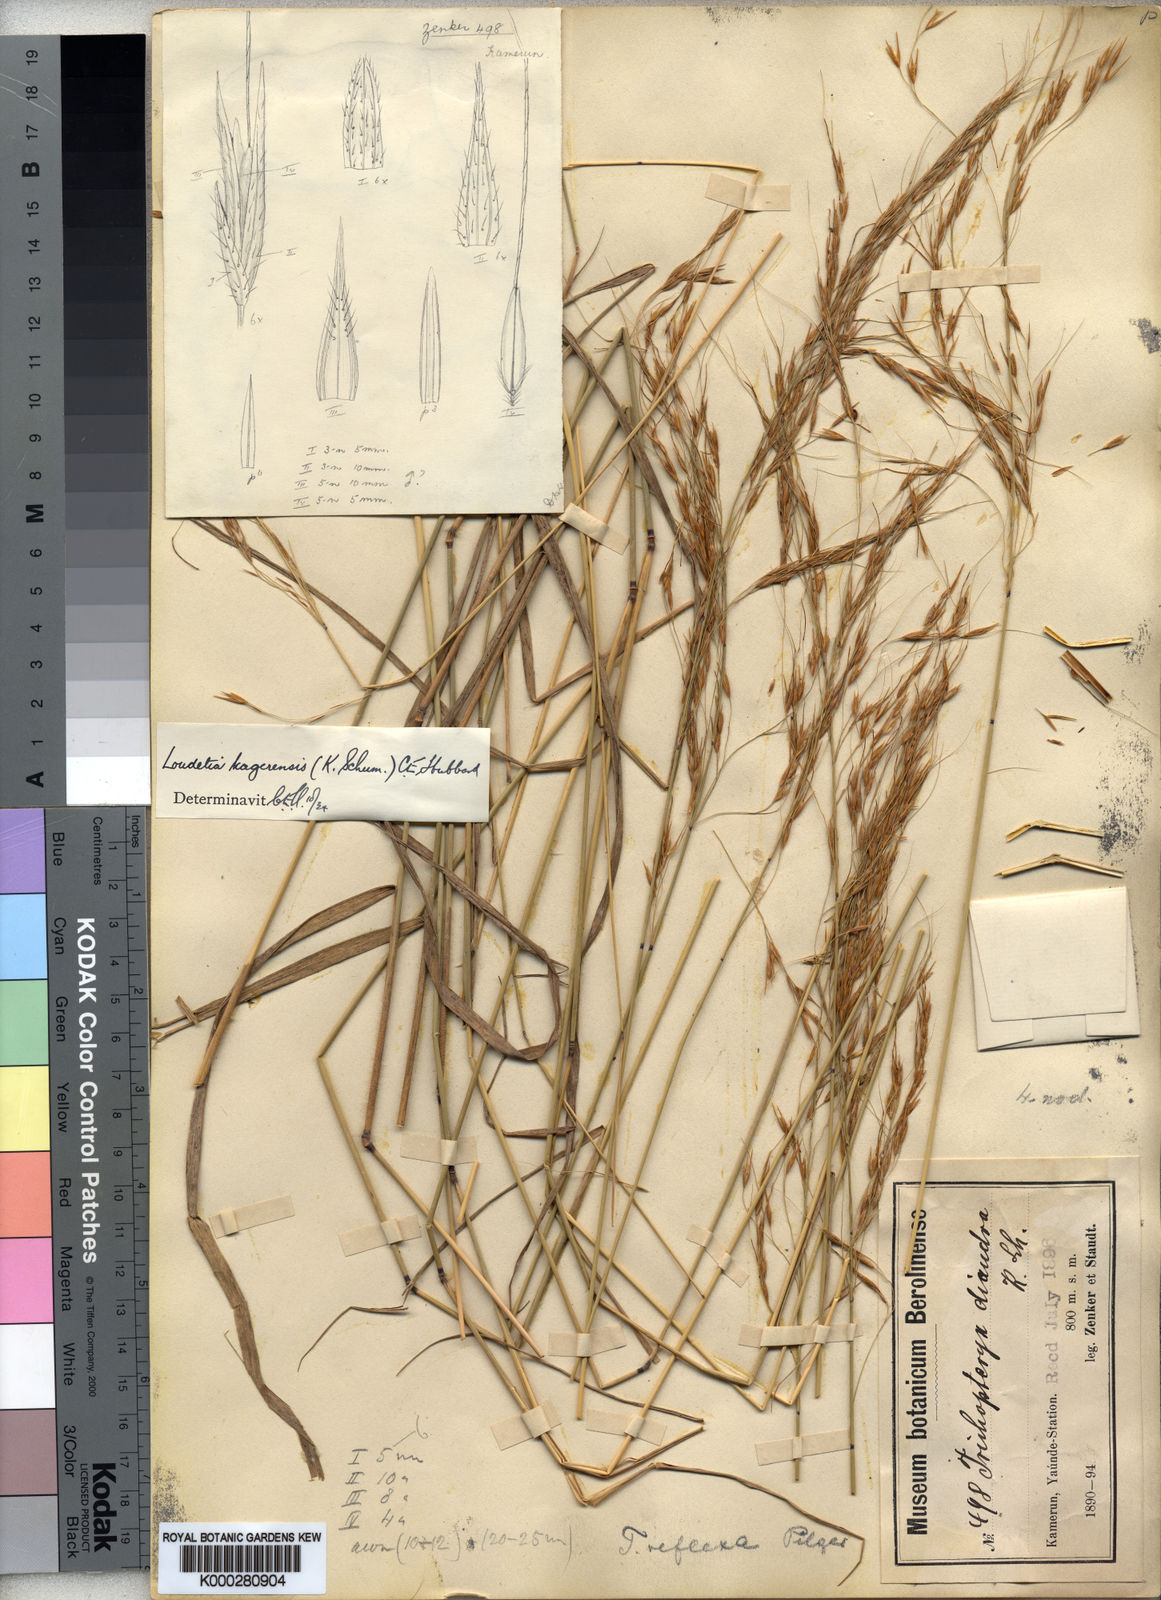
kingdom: Plantae
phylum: Tracheophyta
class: Liliopsida
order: Poales
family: Poaceae
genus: Loudetia
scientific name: Loudetia kagerensis
